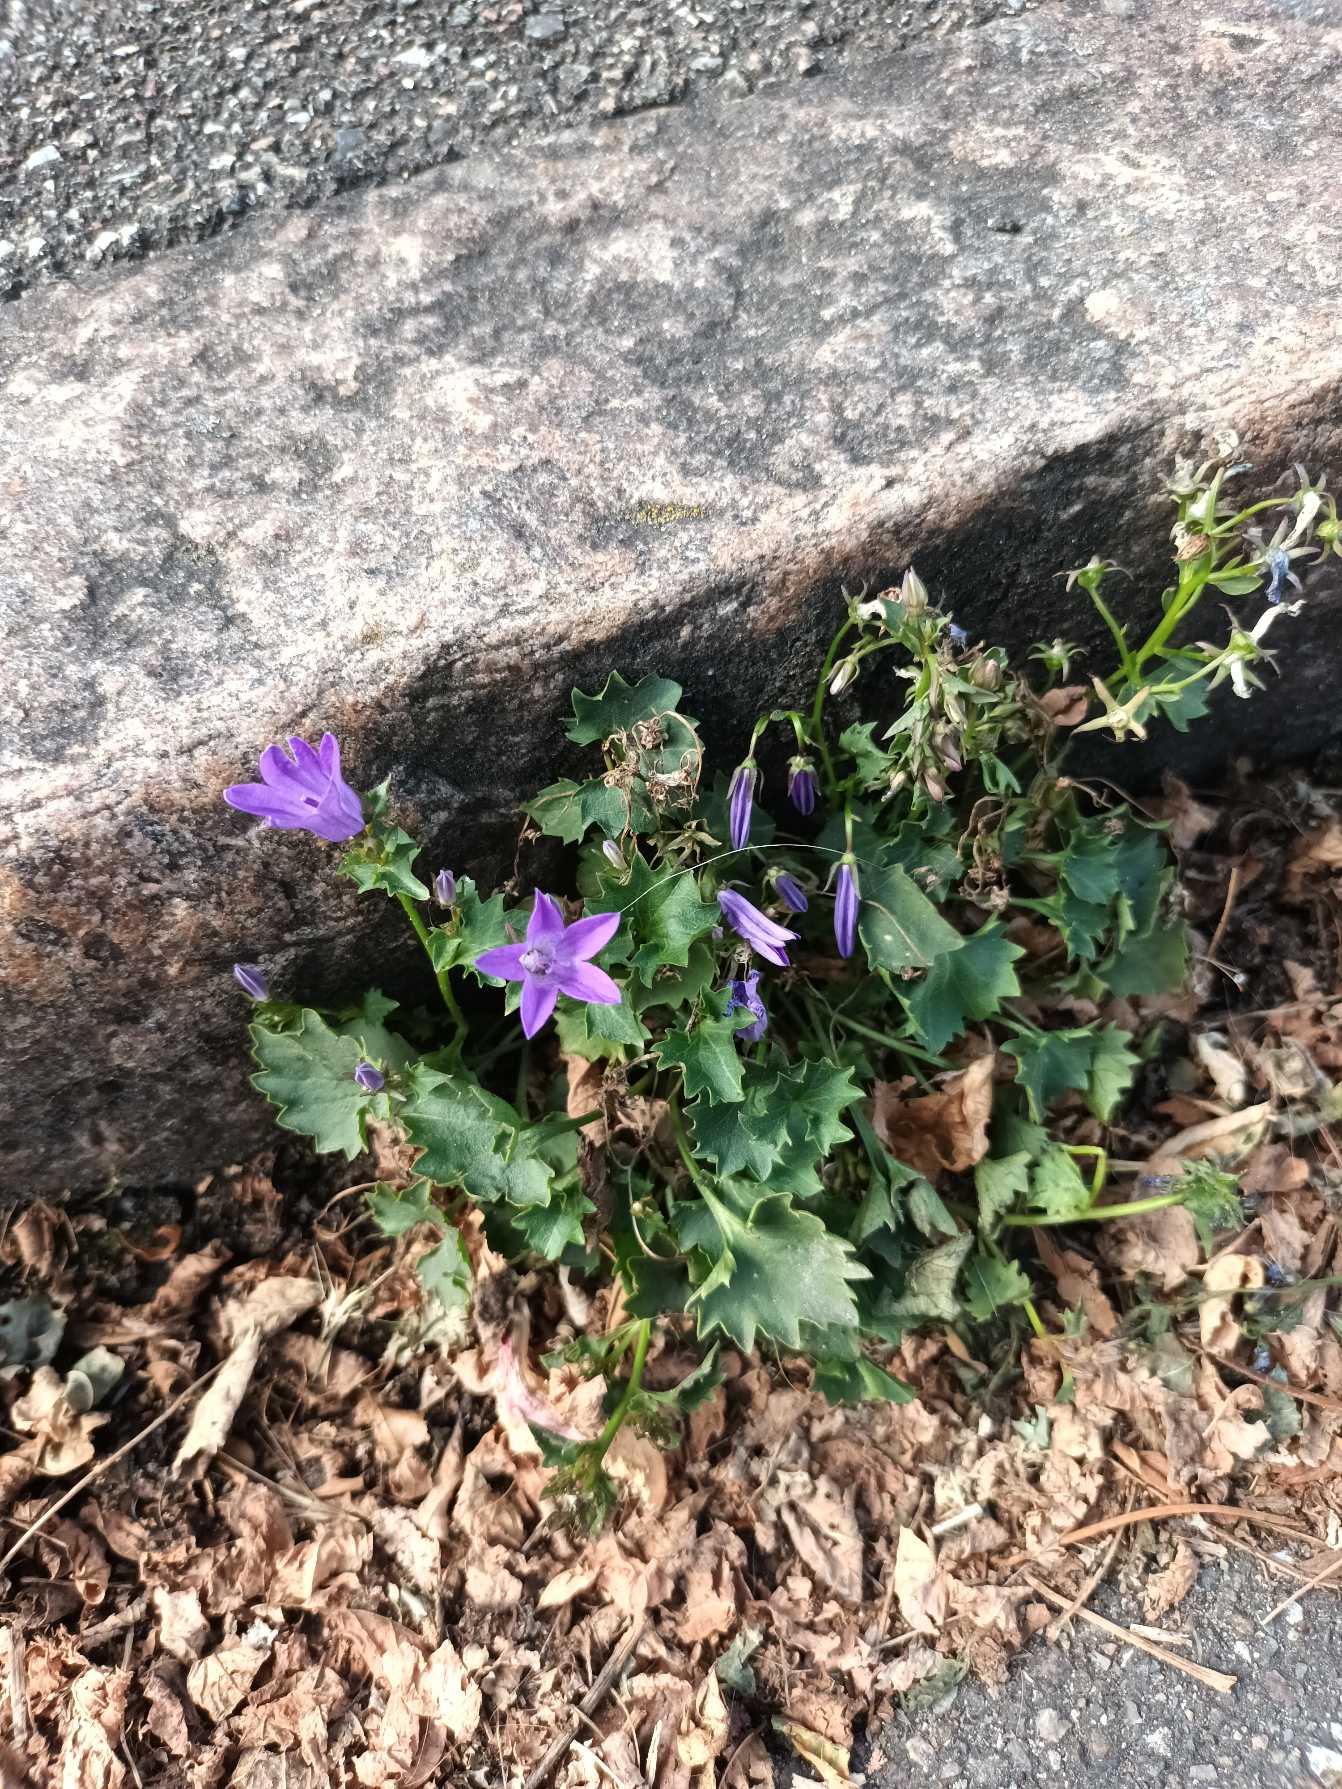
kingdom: Plantae
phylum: Tracheophyta
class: Magnoliopsida
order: Asterales
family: Campanulaceae
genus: Campanula
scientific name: Campanula portenschlagiana
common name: Krybe-klokke
